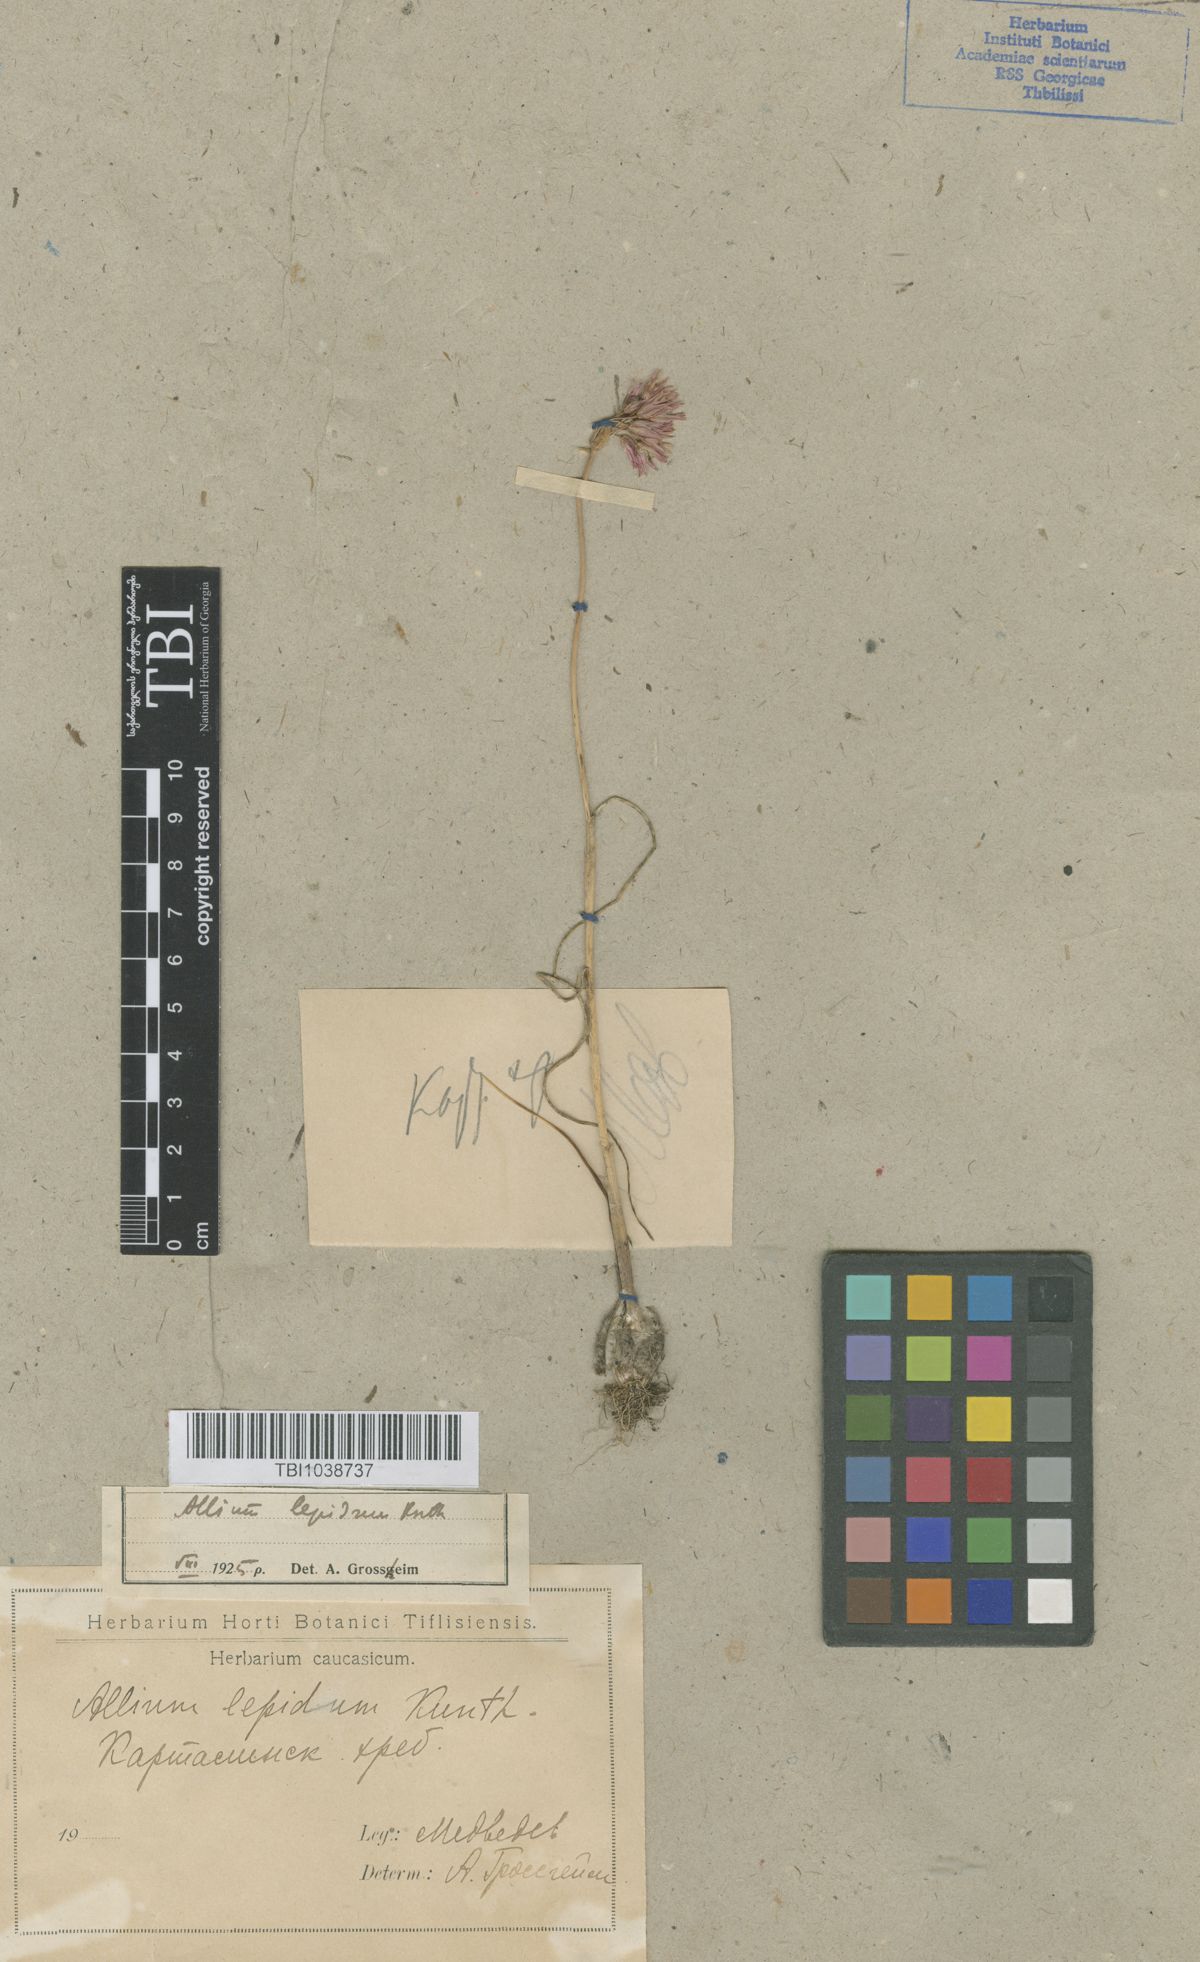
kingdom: Plantae
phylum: Tracheophyta
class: Liliopsida
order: Asparagales
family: Amaryllidaceae
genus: Allium
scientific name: Allium kunthianum
